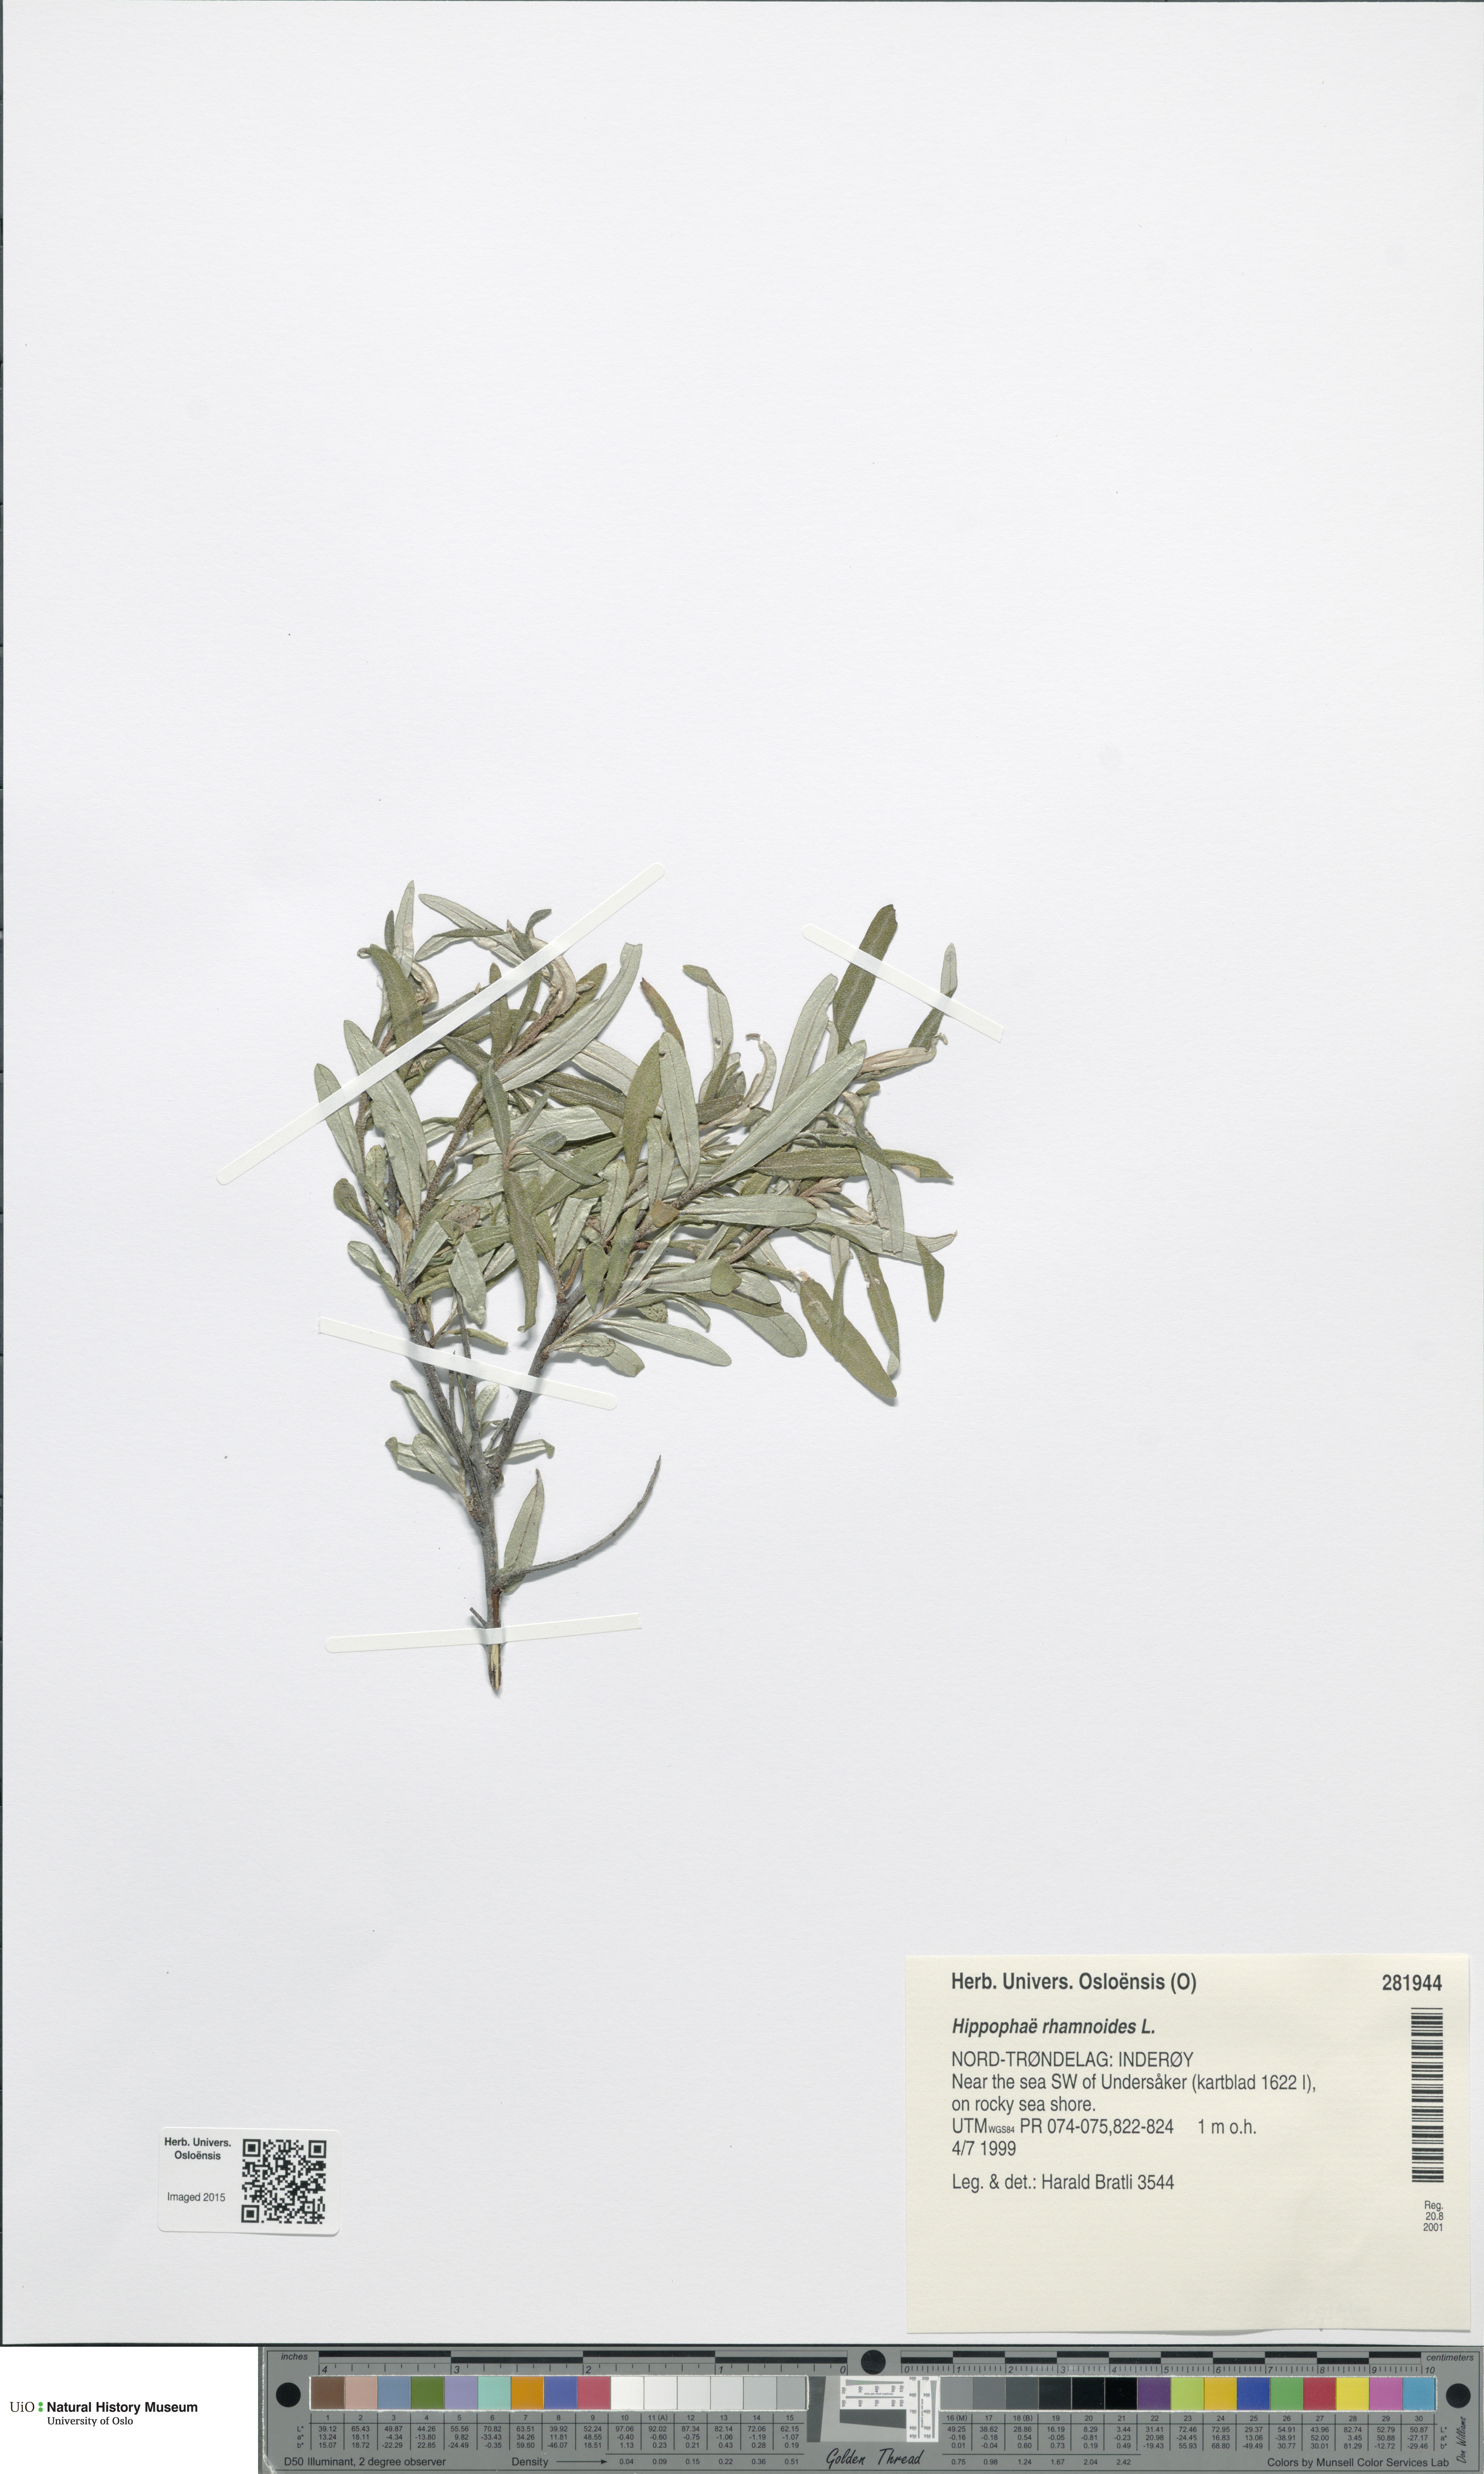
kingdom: Plantae
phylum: Tracheophyta
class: Magnoliopsida
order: Rosales
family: Elaeagnaceae
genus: Hippophae
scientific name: Hippophae rhamnoides
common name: Sea-buckthorn
